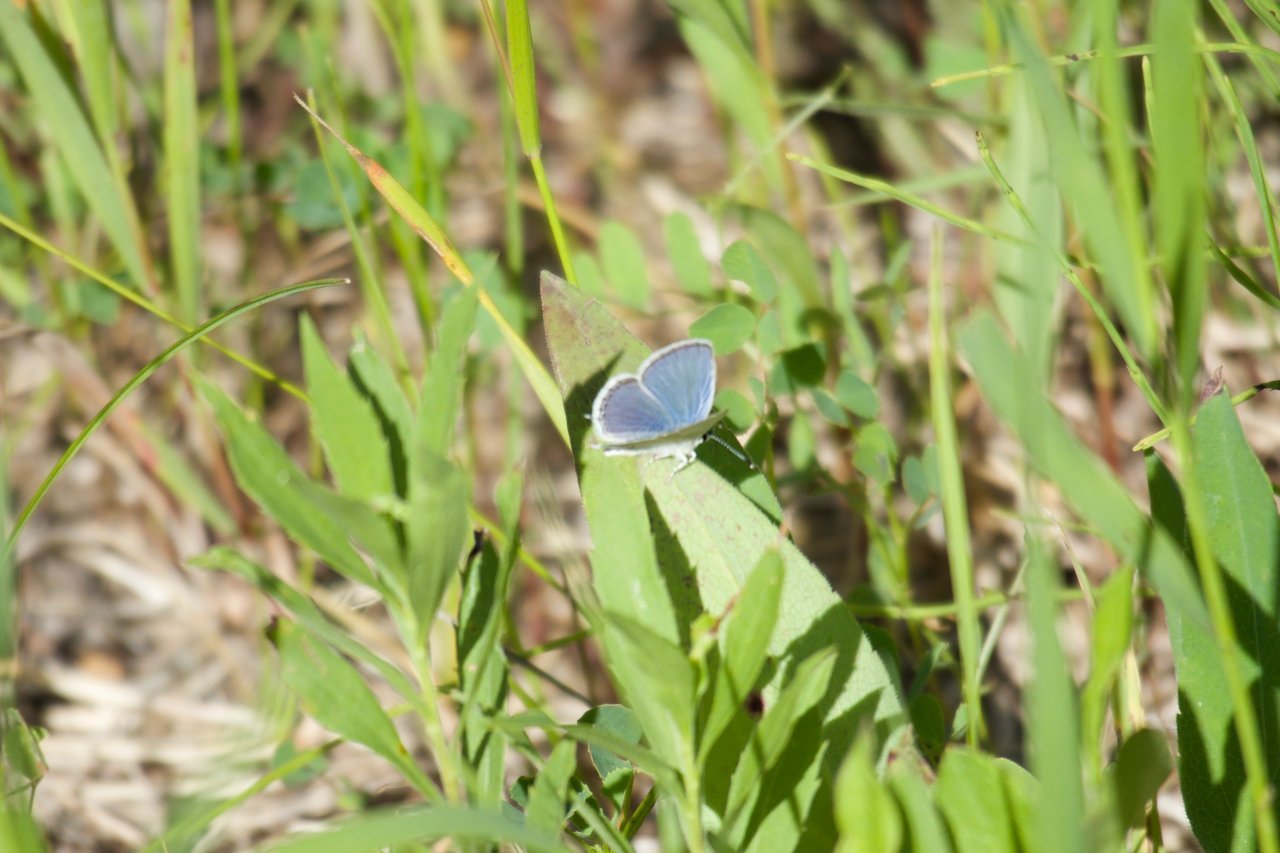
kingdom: Animalia
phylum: Arthropoda
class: Insecta
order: Lepidoptera
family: Lycaenidae
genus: Elkalyce
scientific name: Elkalyce amyntula
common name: Western Tailed-Blue
